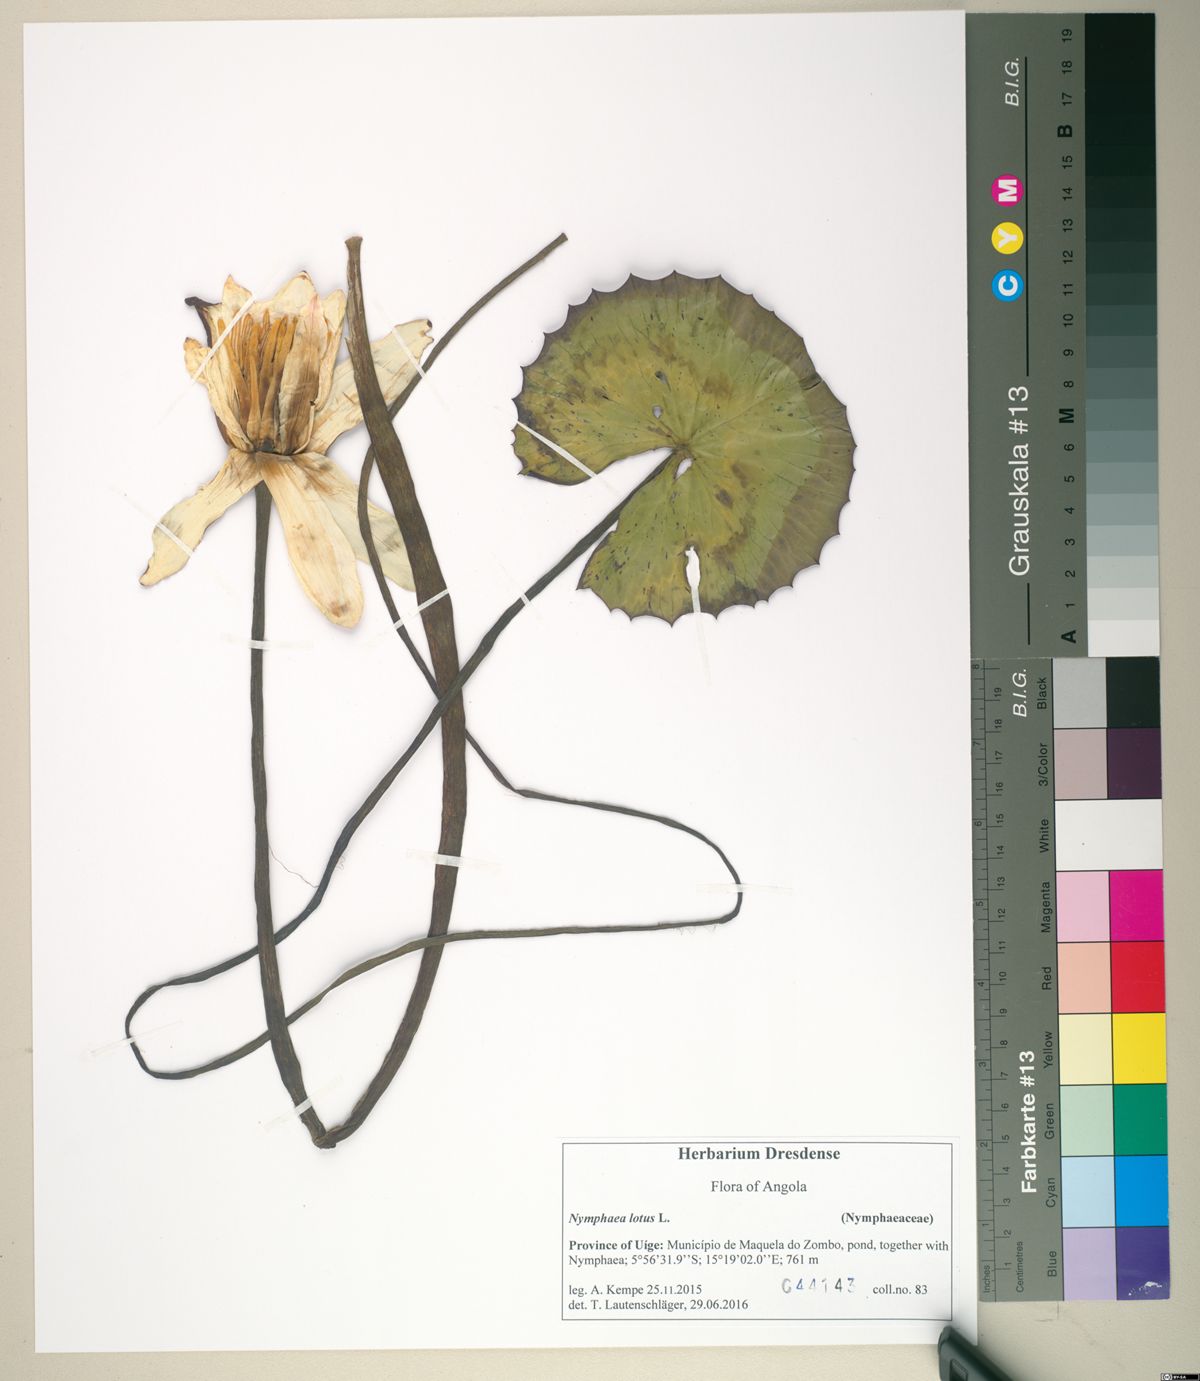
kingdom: Plantae
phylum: Tracheophyta
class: Magnoliopsida
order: Nymphaeales
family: Nymphaeaceae
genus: Nymphaea
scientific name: Nymphaea lotus
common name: White egyptian lotus
